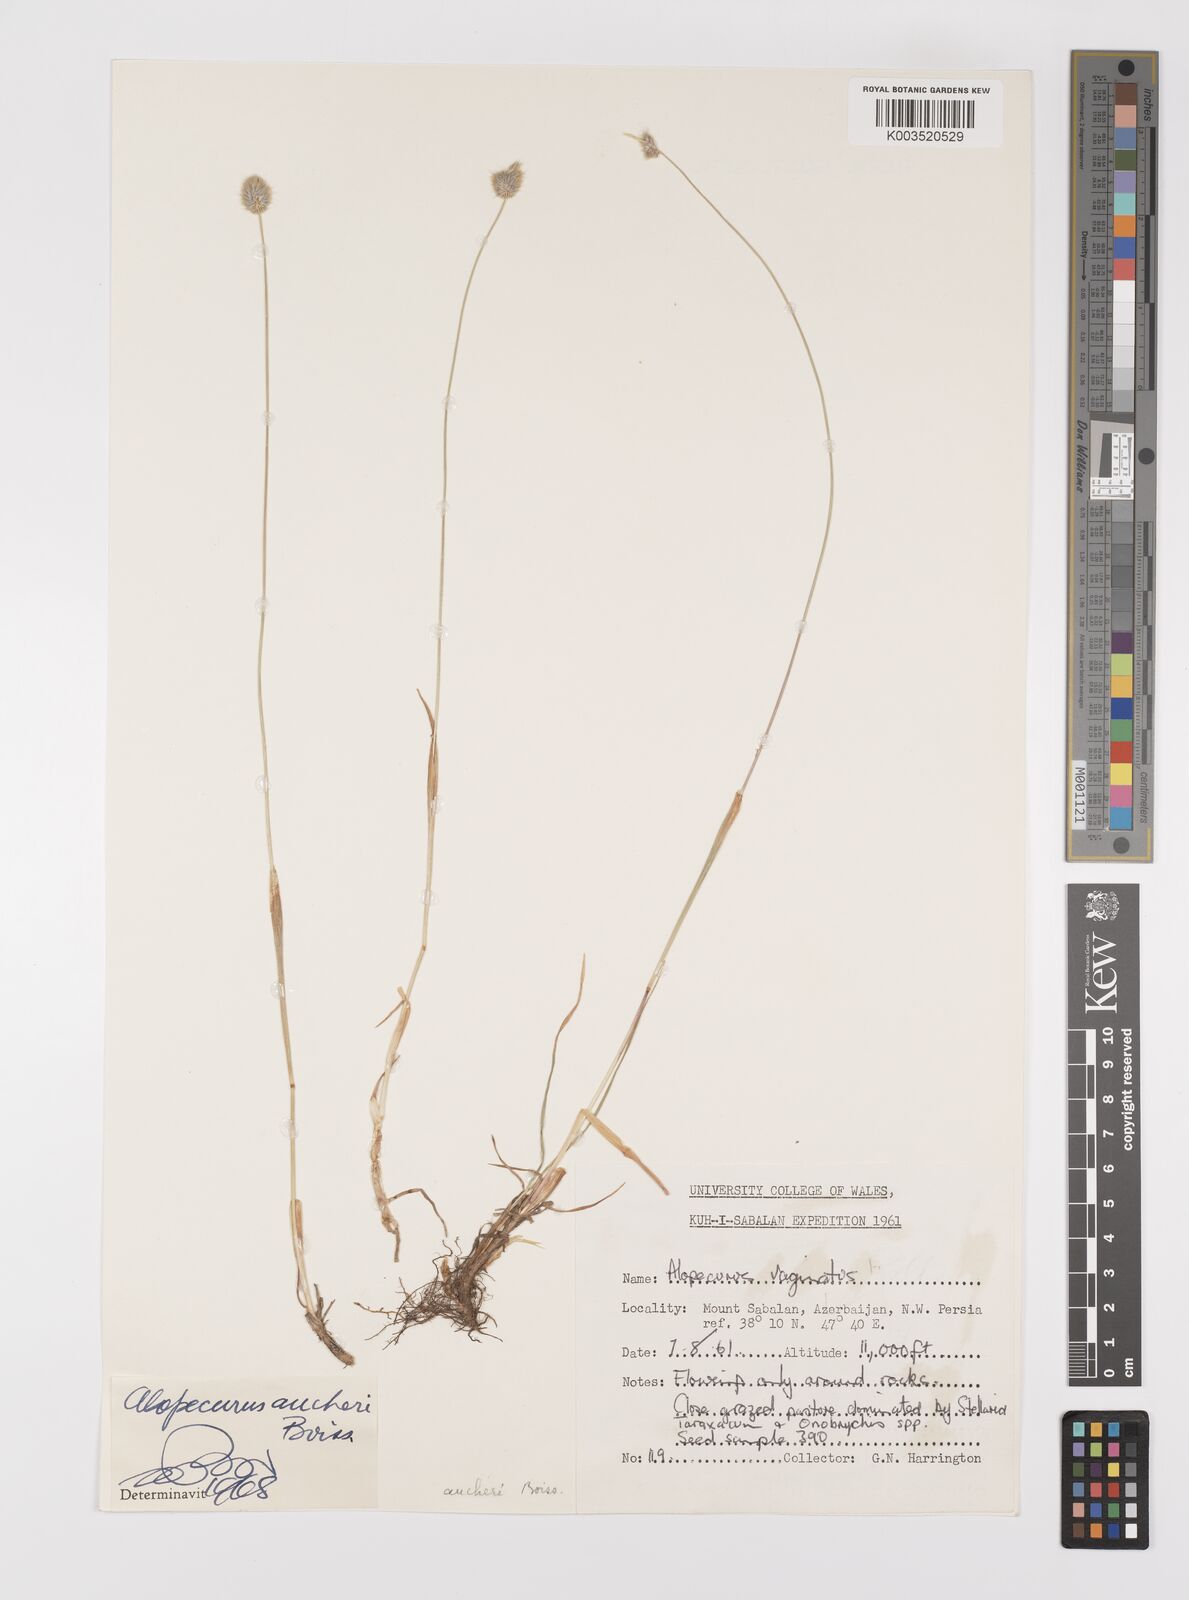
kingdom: Plantae
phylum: Tracheophyta
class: Liliopsida
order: Poales
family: Poaceae
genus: Alopecurus
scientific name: Alopecurus aucheri
